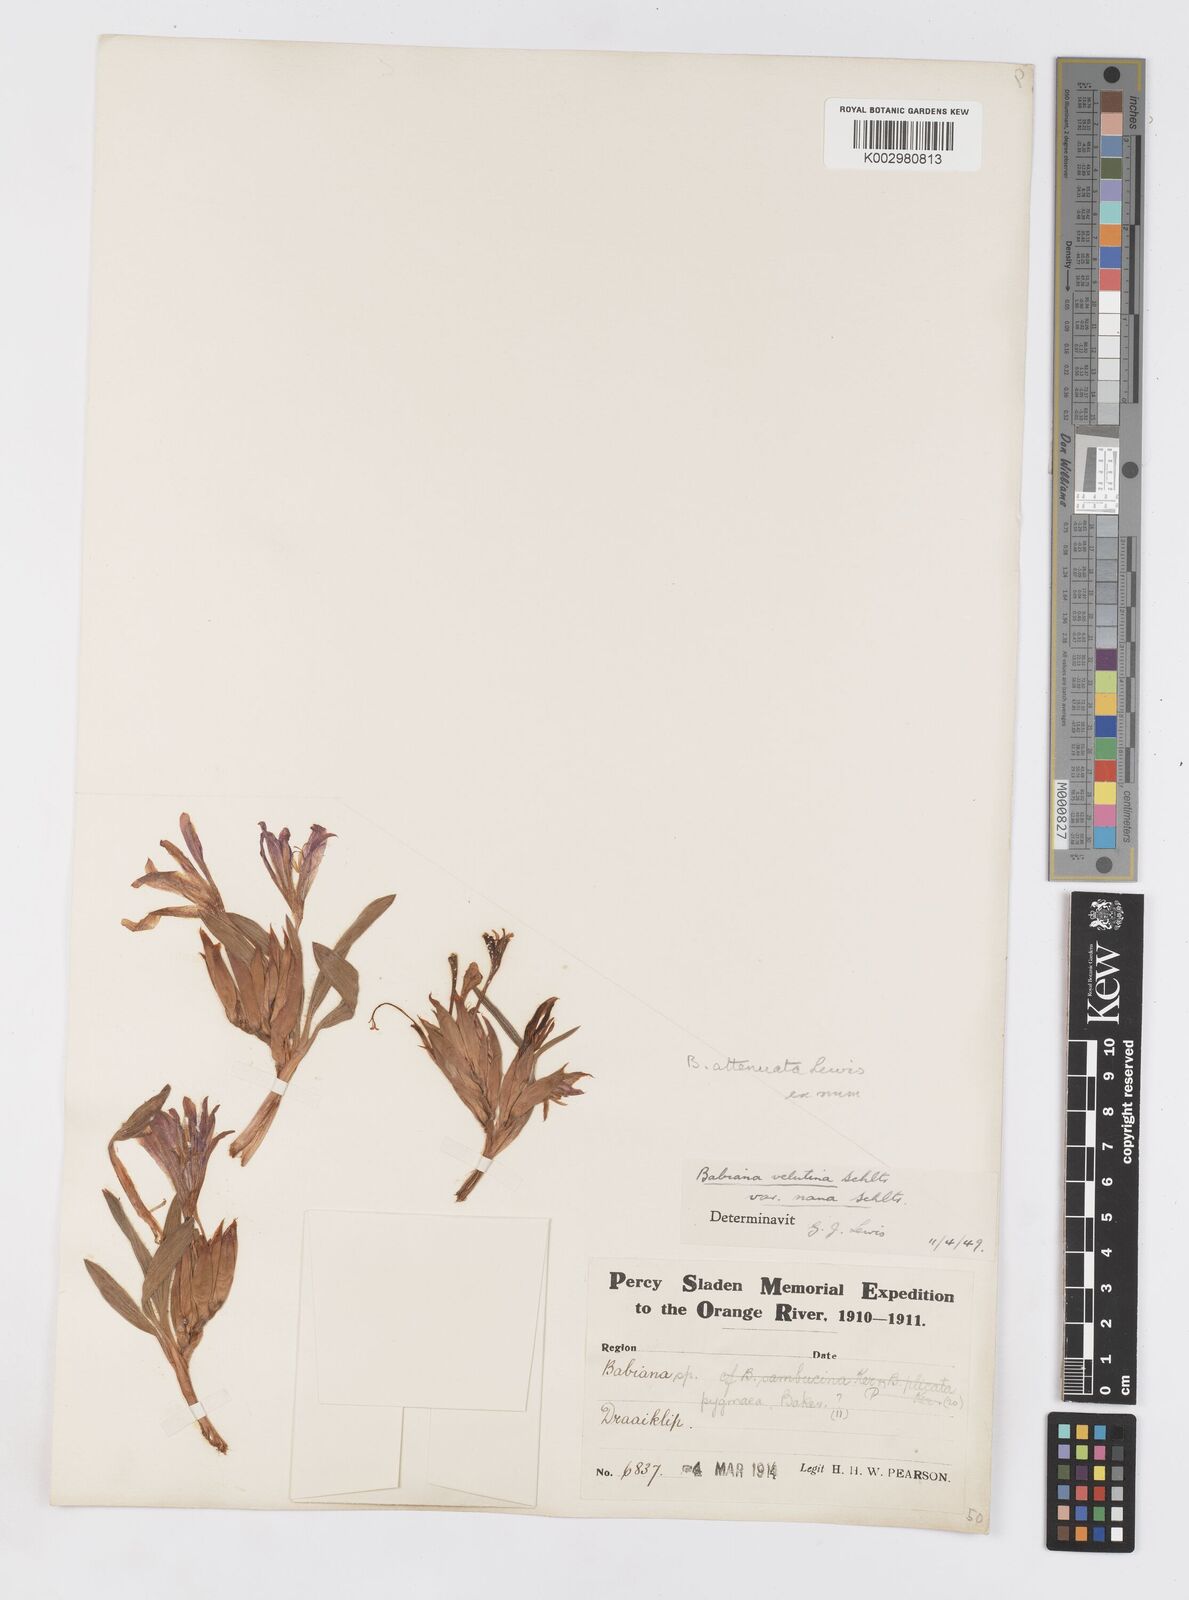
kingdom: Plantae
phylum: Tracheophyta
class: Liliopsida
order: Asparagales
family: Iridaceae
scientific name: Iridaceae
